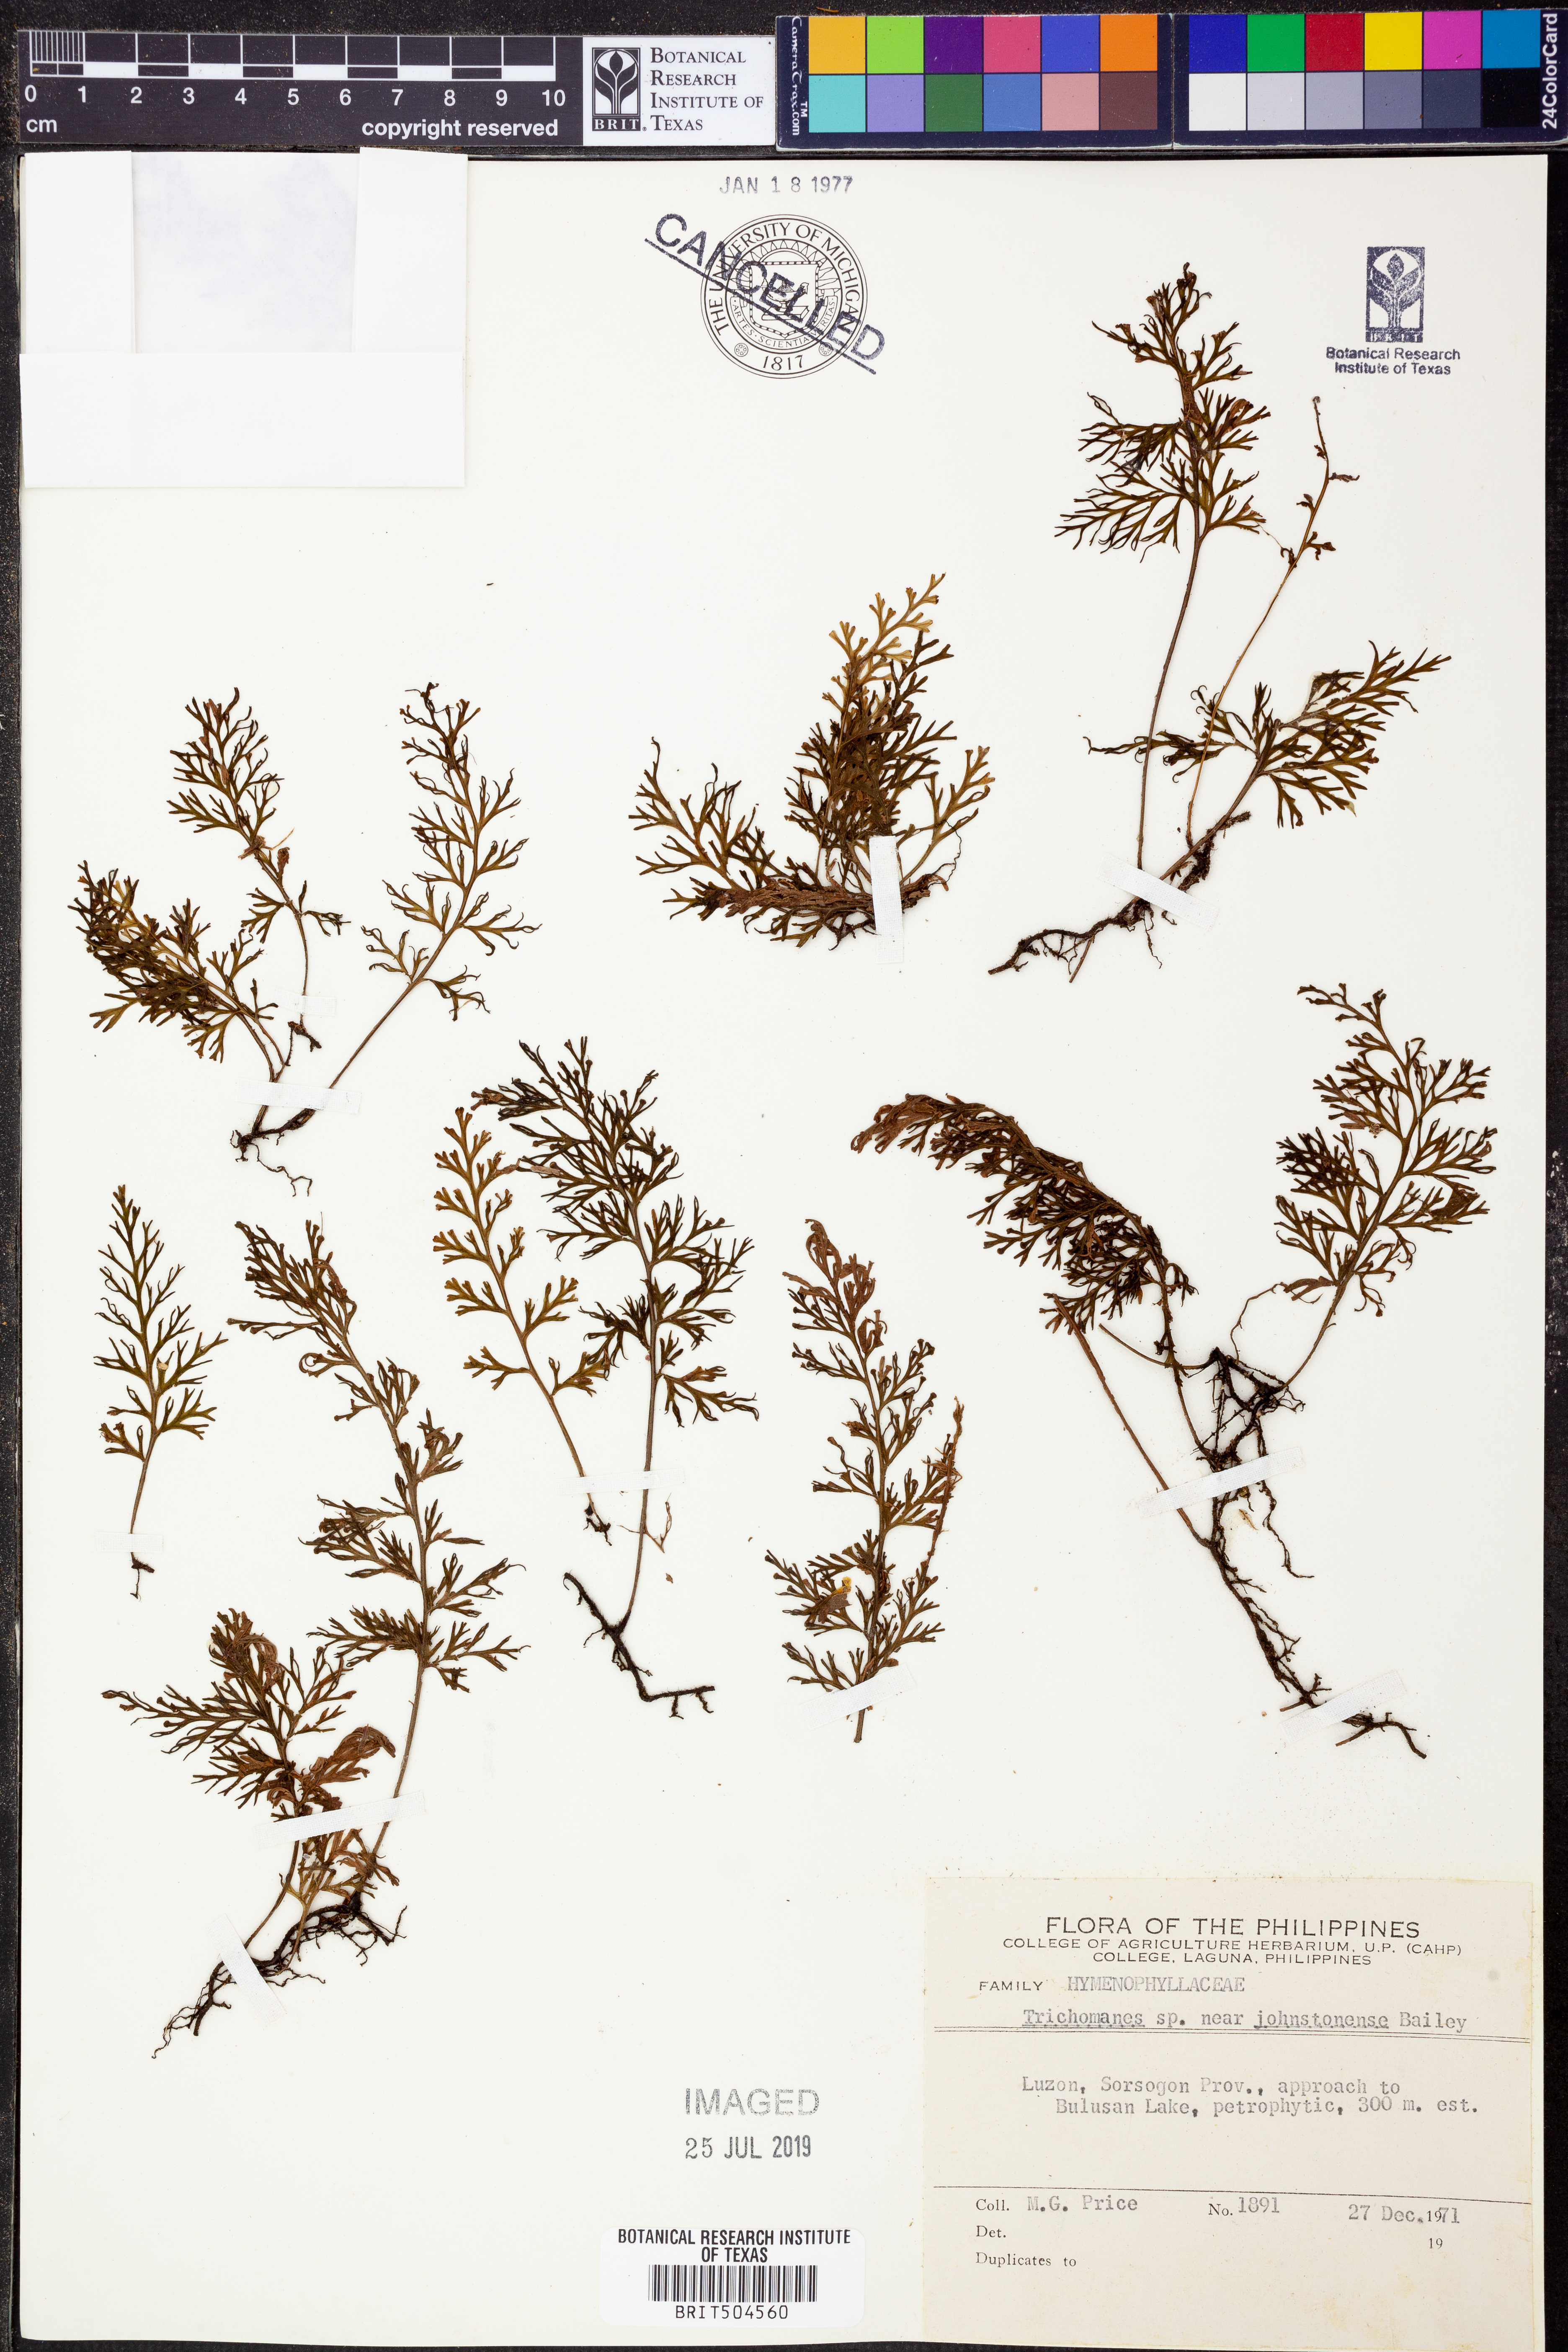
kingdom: Plantae
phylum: Tracheophyta
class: Polypodiopsida
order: Hymenophyllales
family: Hymenophyllaceae
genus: Trichomanes
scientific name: Trichomanes
